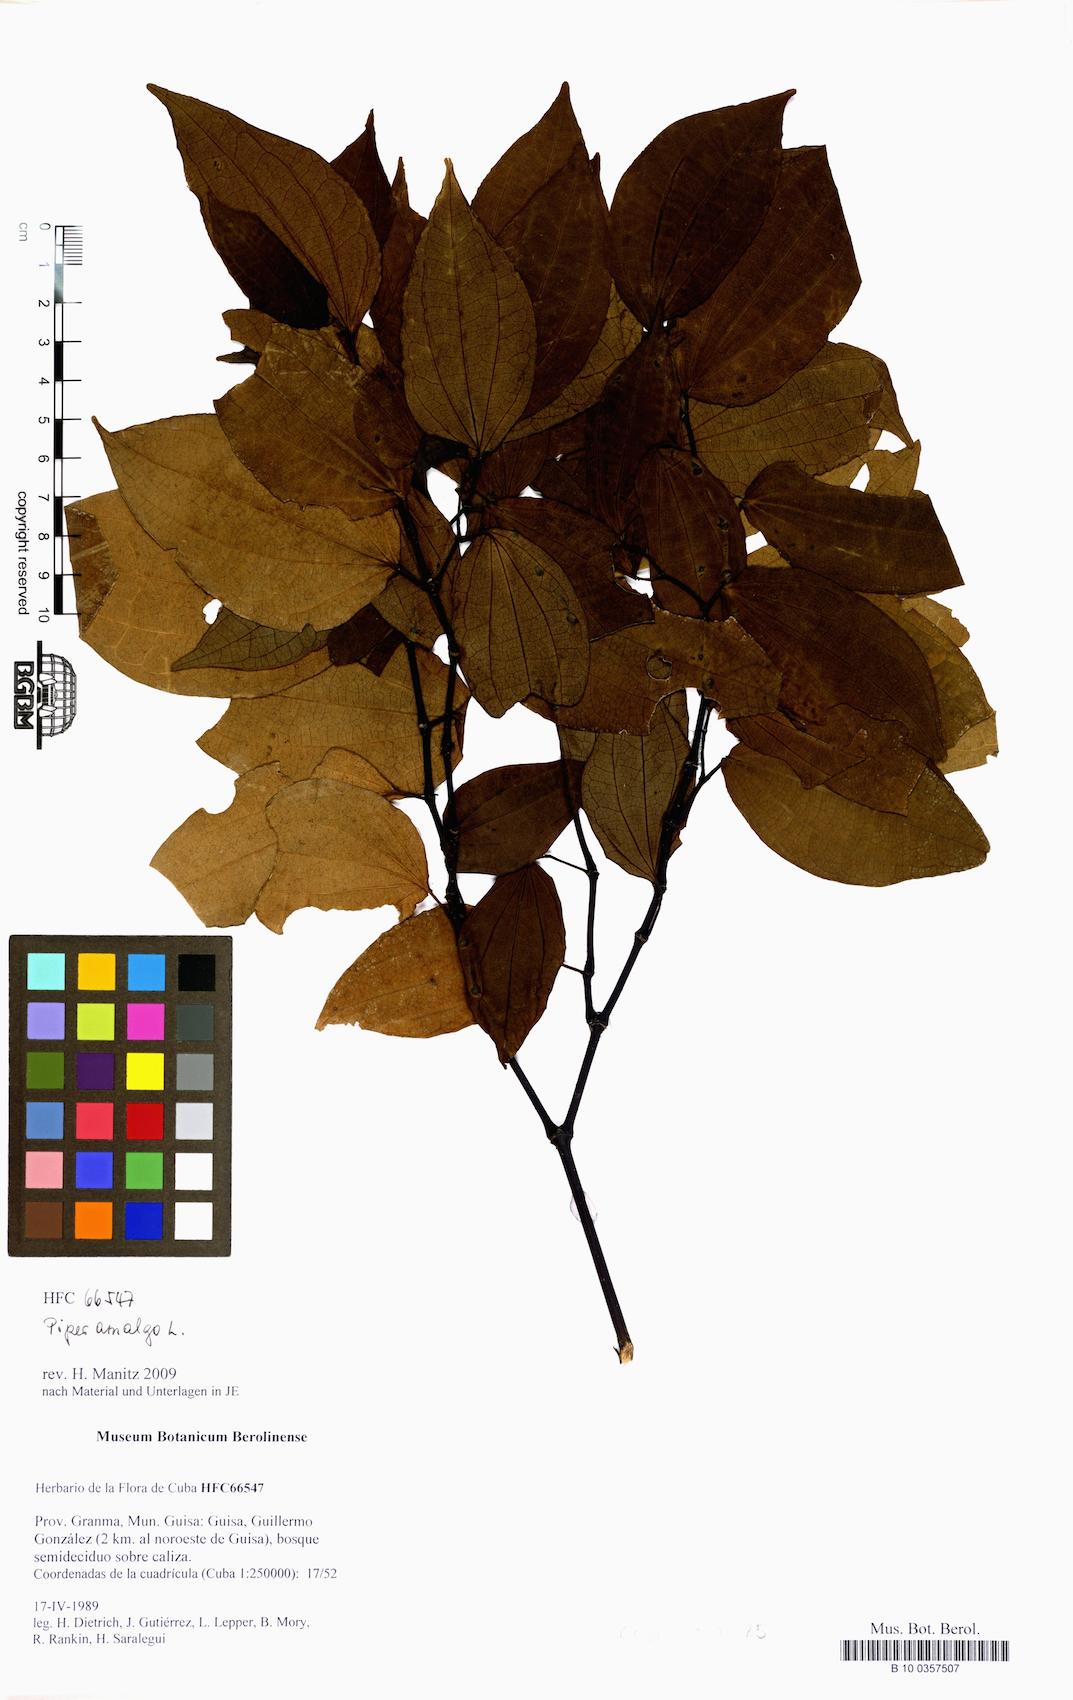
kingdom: Plantae
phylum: Tracheophyta
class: Magnoliopsida
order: Piperales
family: Piperaceae
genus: Piper
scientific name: Piper amalago
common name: Pepper-elder
